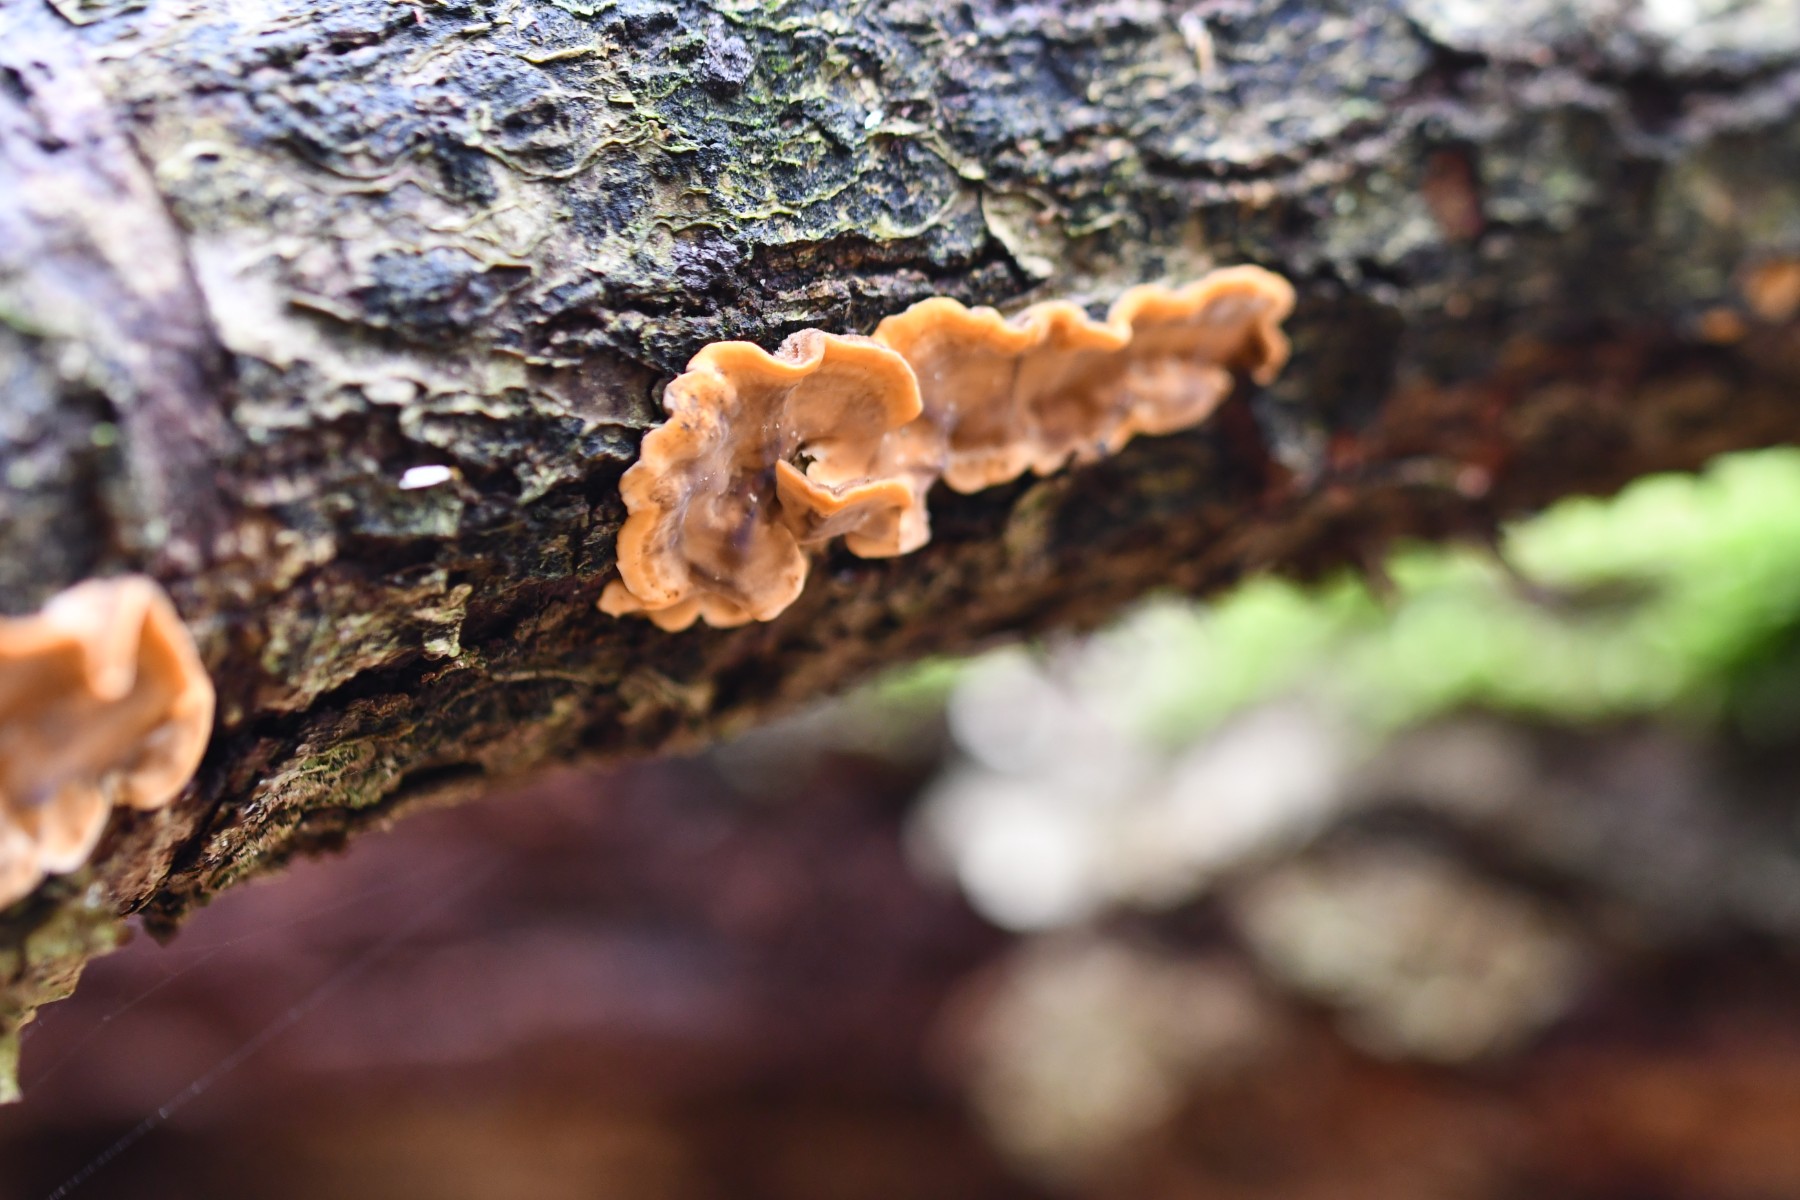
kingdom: Fungi
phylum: Basidiomycota
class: Agaricomycetes
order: Russulales
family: Stereaceae
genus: Stereum
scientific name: Stereum hirsutum
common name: håret lædersvamp
